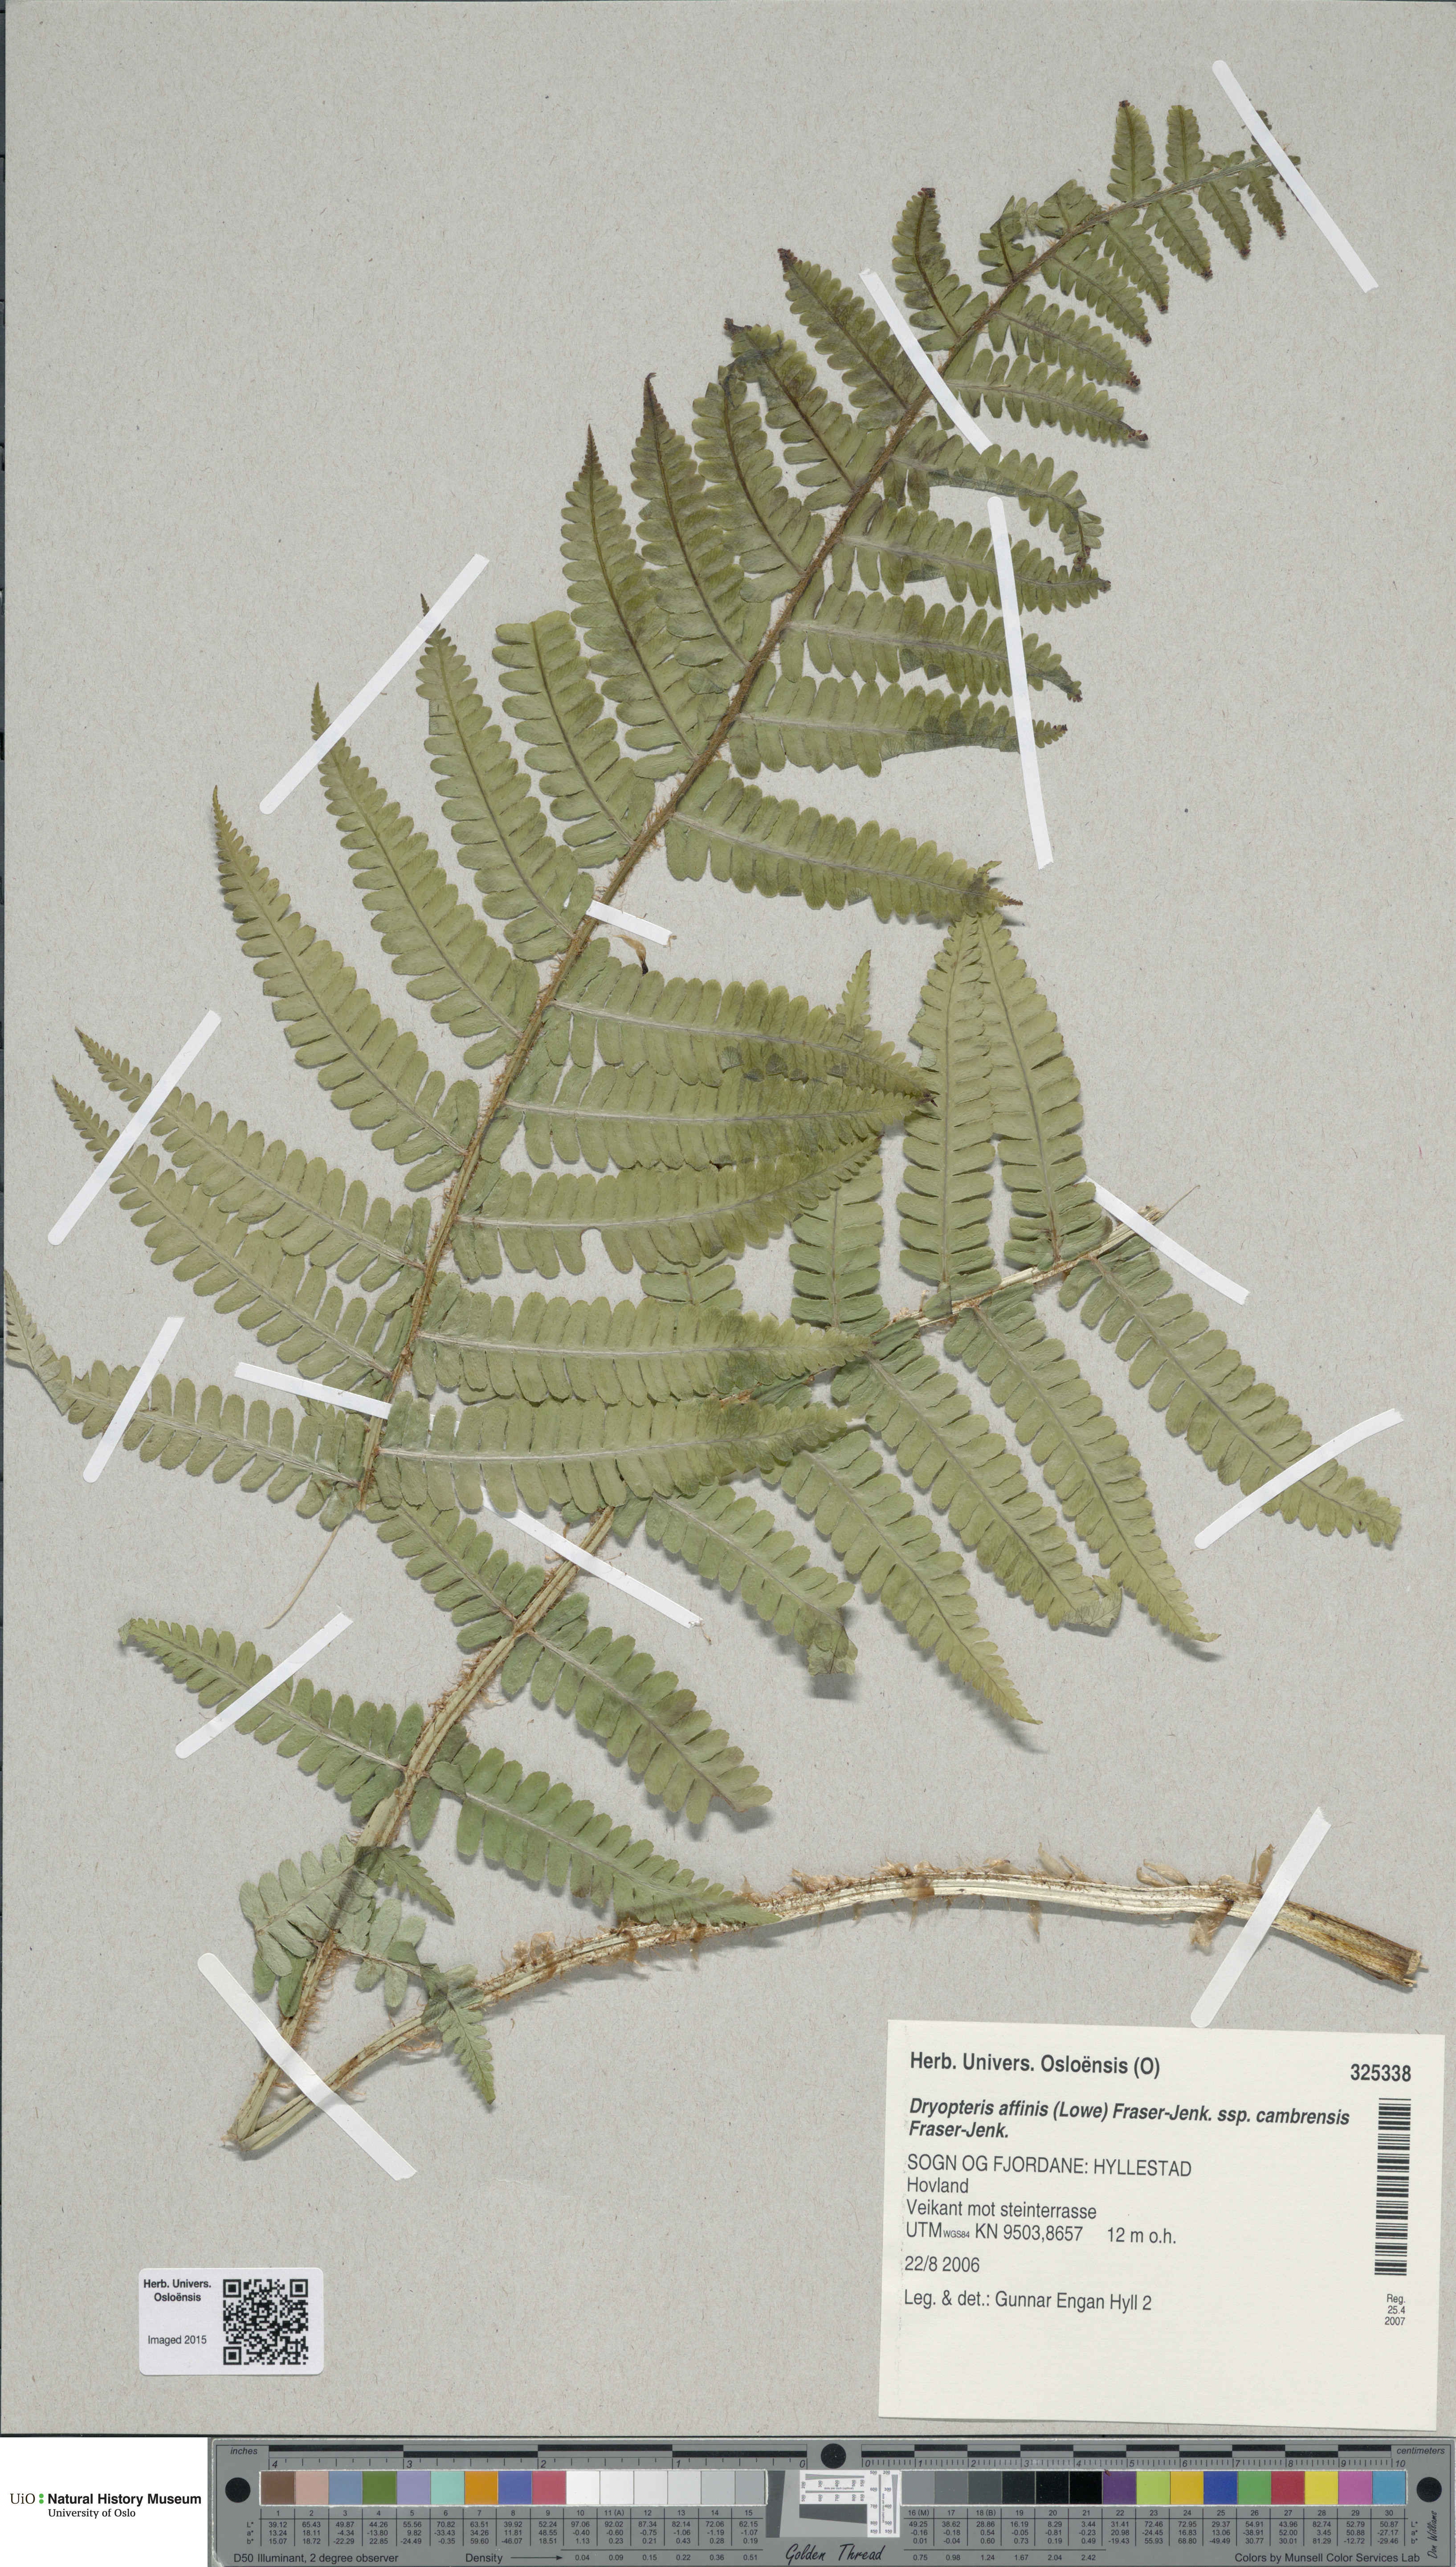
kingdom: Plantae
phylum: Tracheophyta
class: Polypodiopsida
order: Polypodiales
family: Dryopteridaceae
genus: Dryopteris
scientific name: Dryopteris cambrensis
